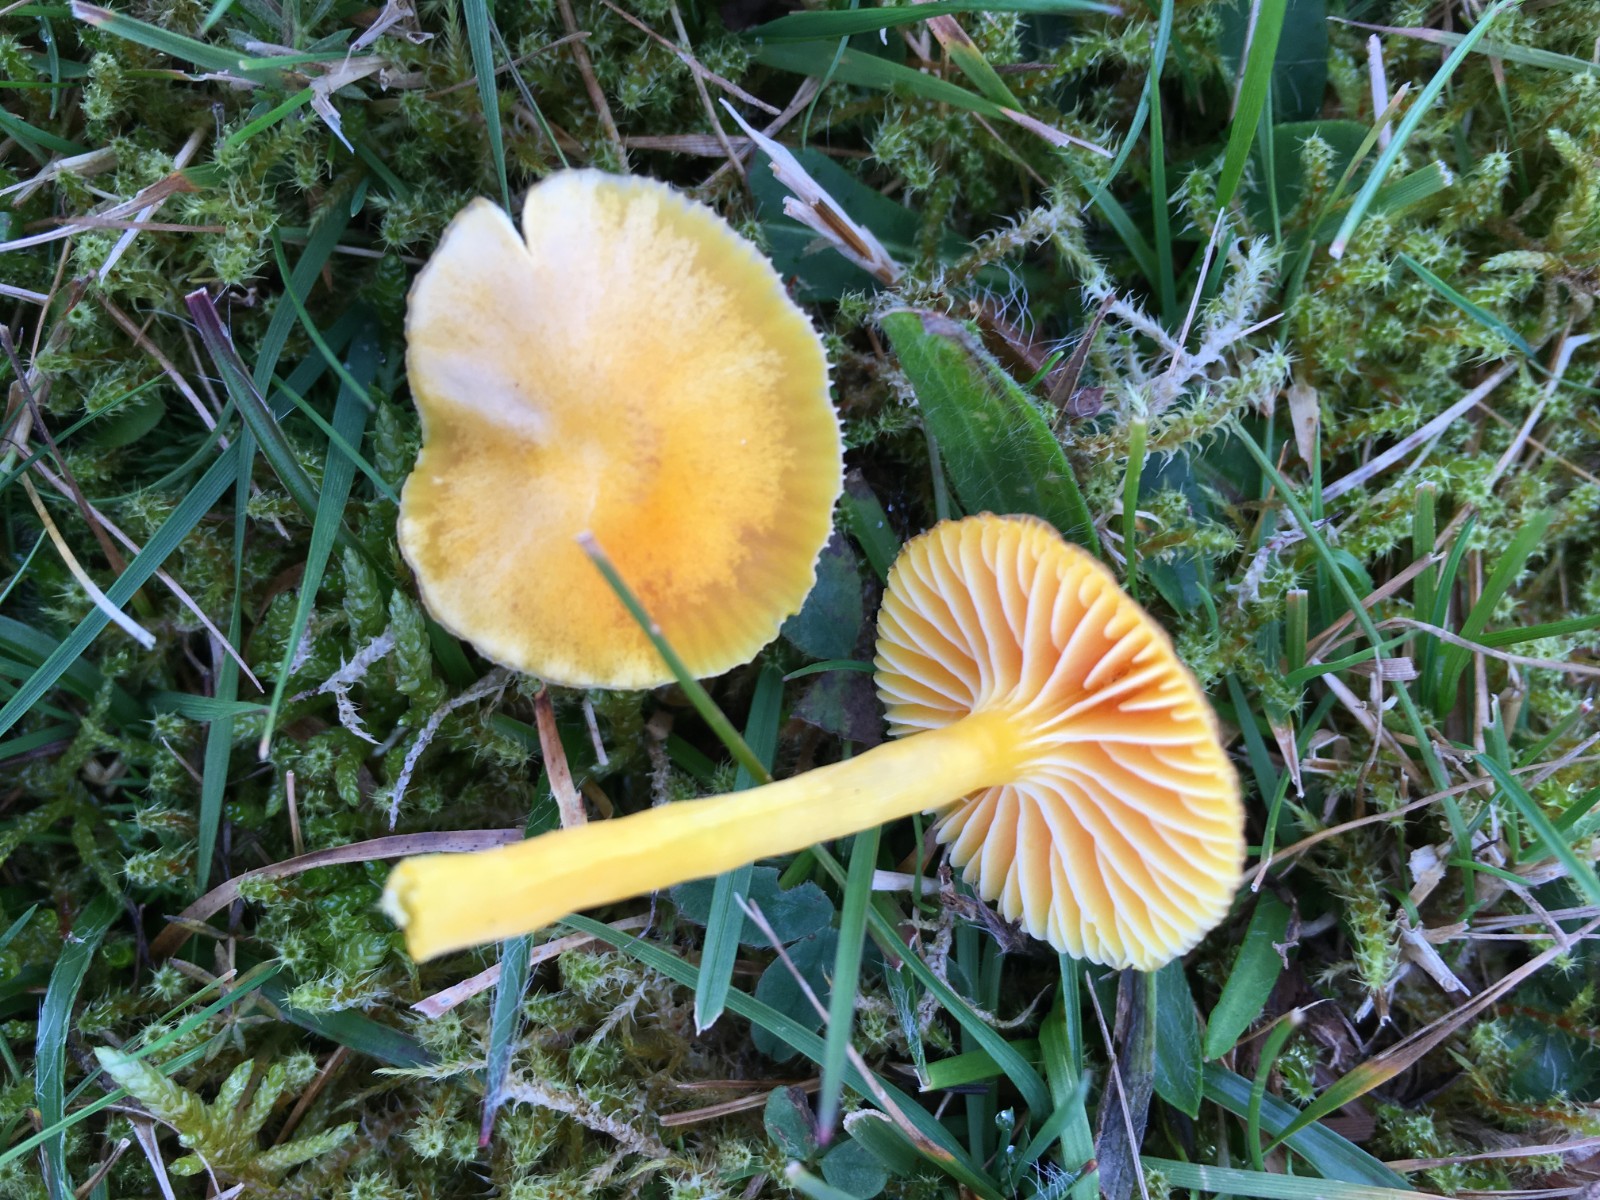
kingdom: Fungi
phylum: Basidiomycota
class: Agaricomycetes
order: Agaricales
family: Hygrophoraceae
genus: Hygrocybe
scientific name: Hygrocybe ceracea
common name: voksgul vokshat
